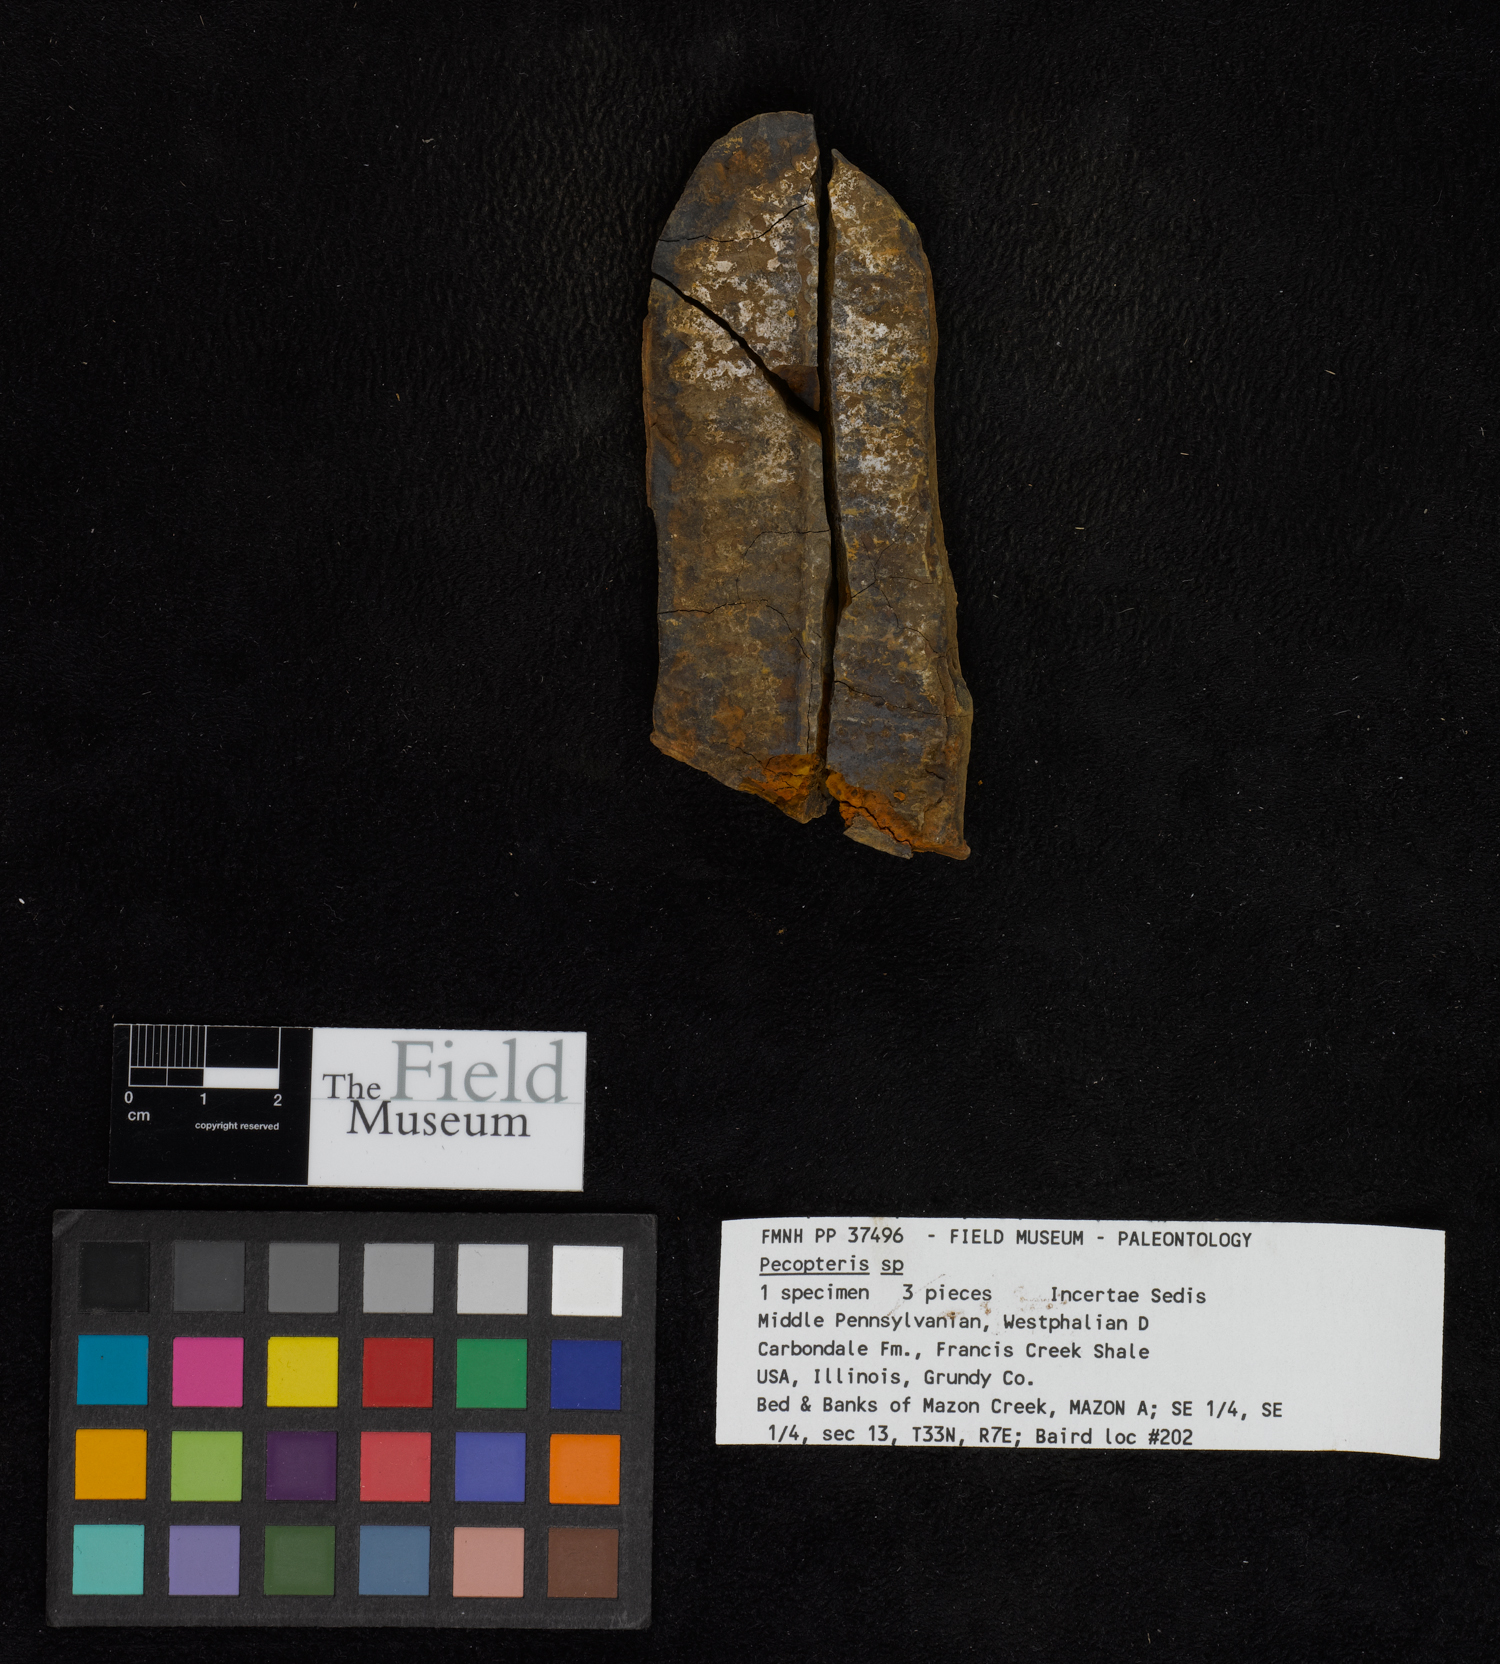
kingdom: Plantae
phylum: Tracheophyta
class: Polypodiopsida
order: Marattiales
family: Asterothecaceae
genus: Pecopteris
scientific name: Pecopteris
